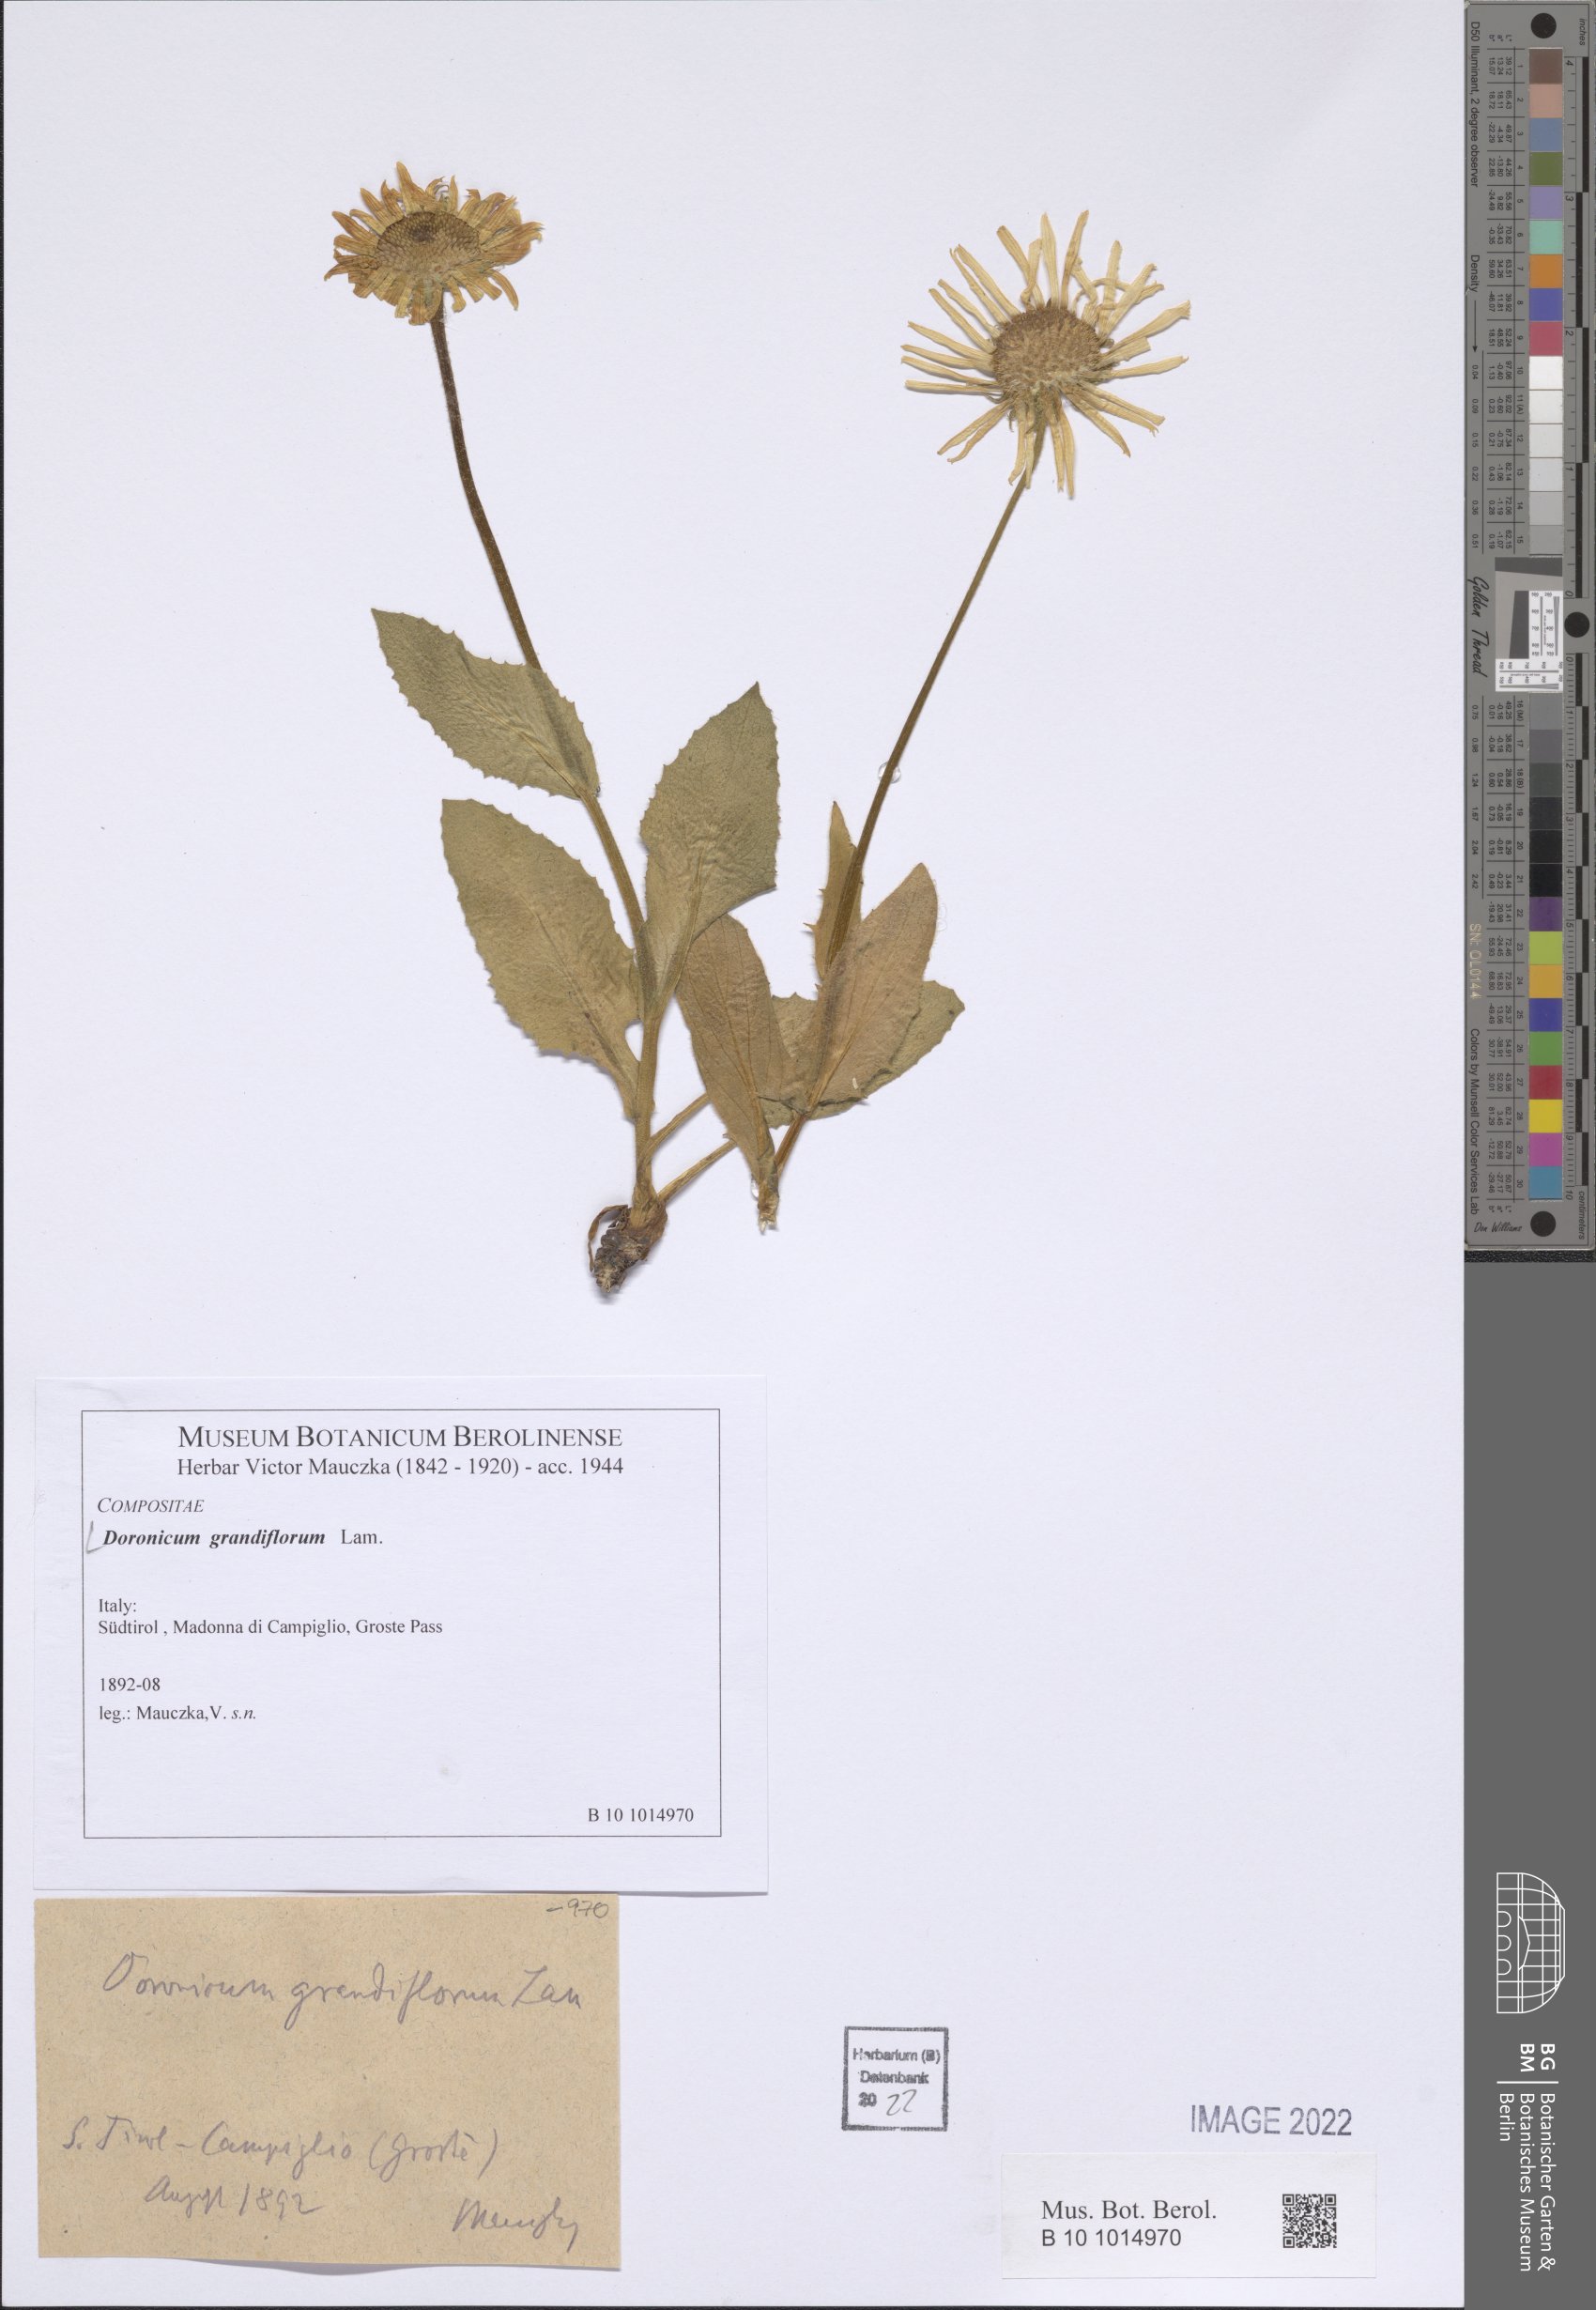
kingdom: Plantae
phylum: Tracheophyta
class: Magnoliopsida
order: Asterales
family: Asteraceae
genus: Doronicum
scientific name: Doronicum grandiflorum
